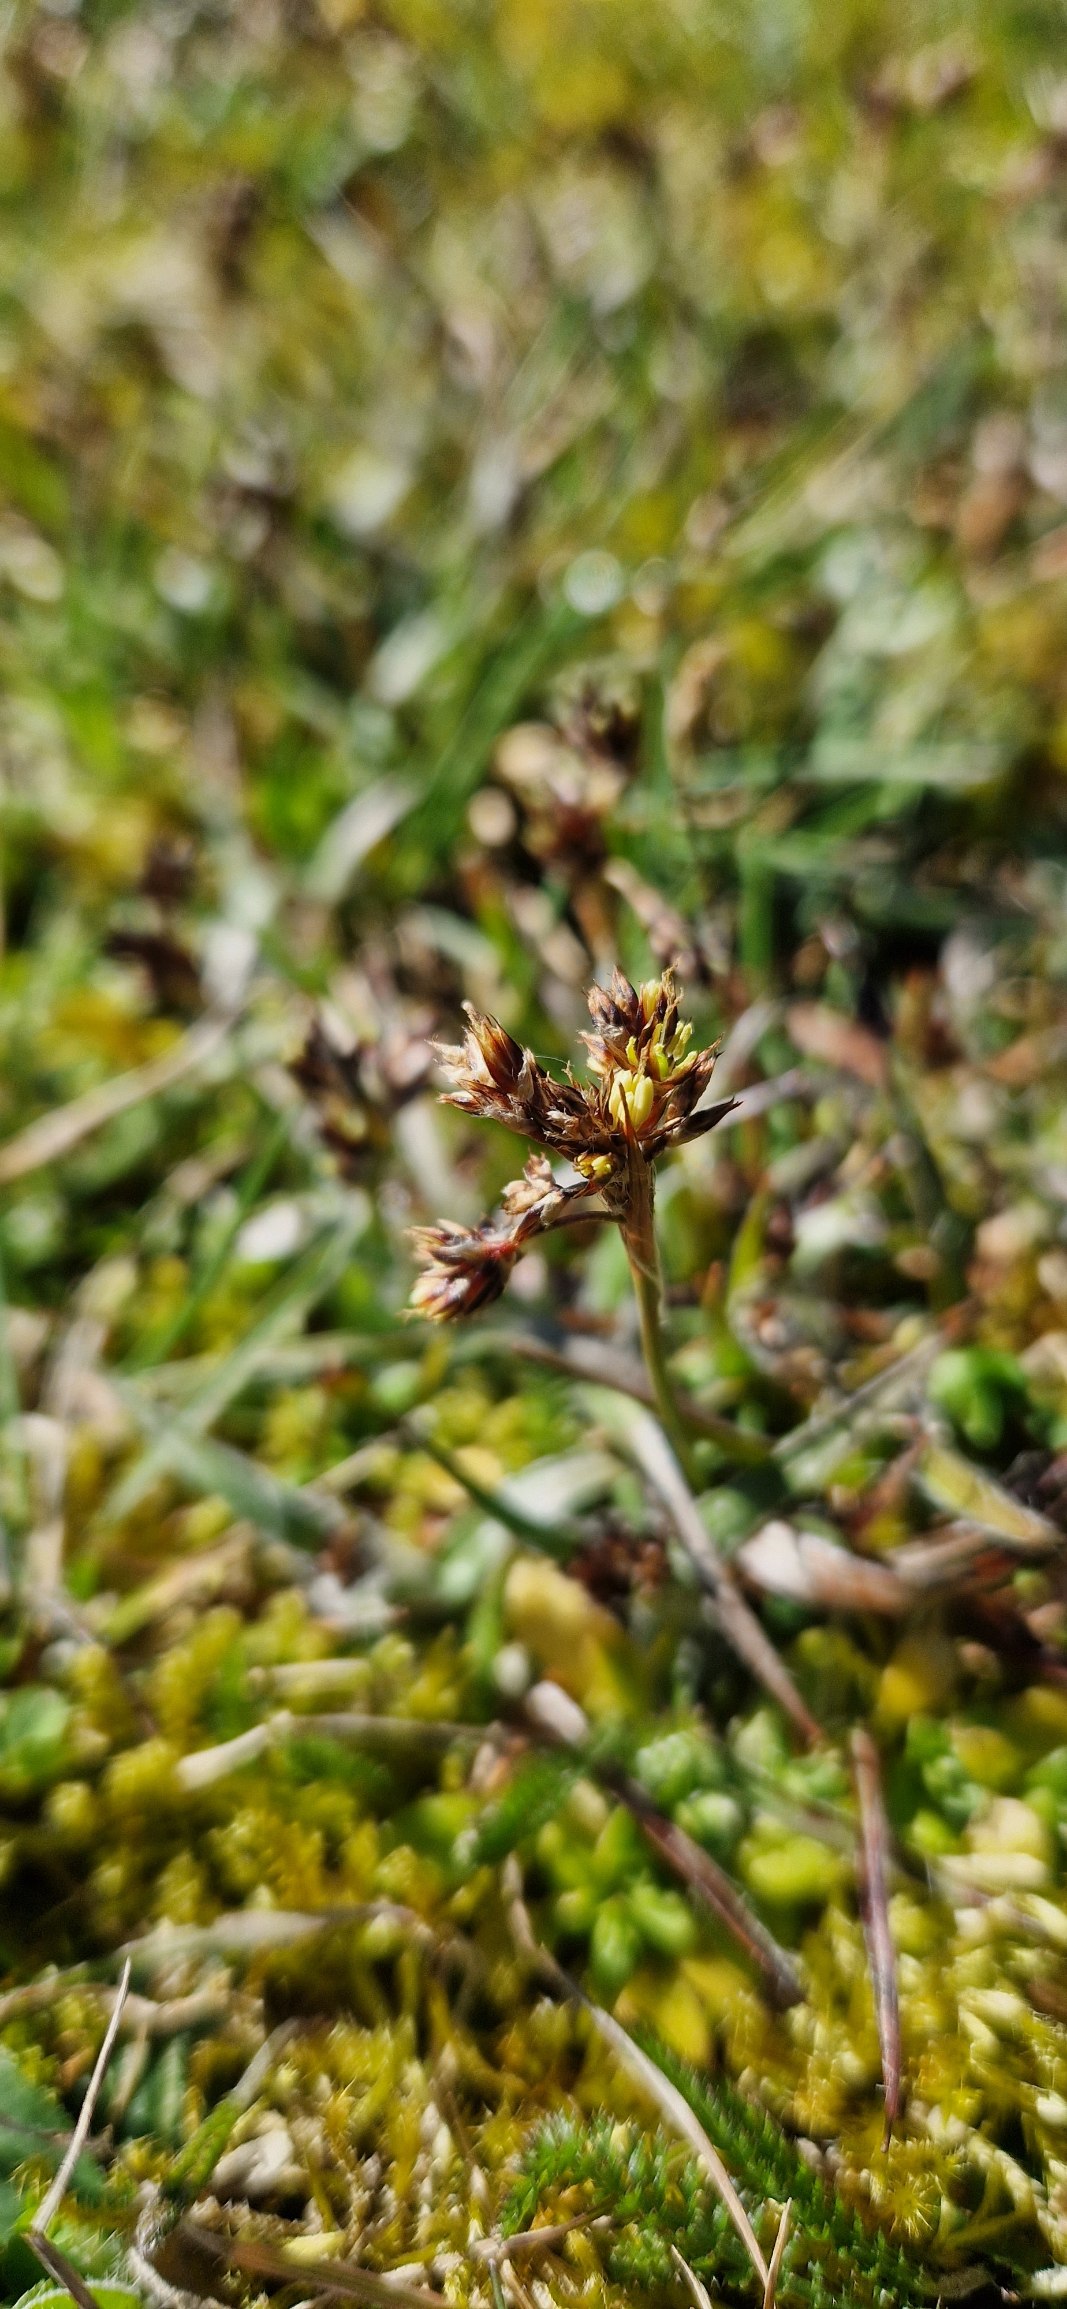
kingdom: Plantae
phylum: Tracheophyta
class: Liliopsida
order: Poales
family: Juncaceae
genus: Luzula
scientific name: Luzula campestris
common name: Mark-frytle
